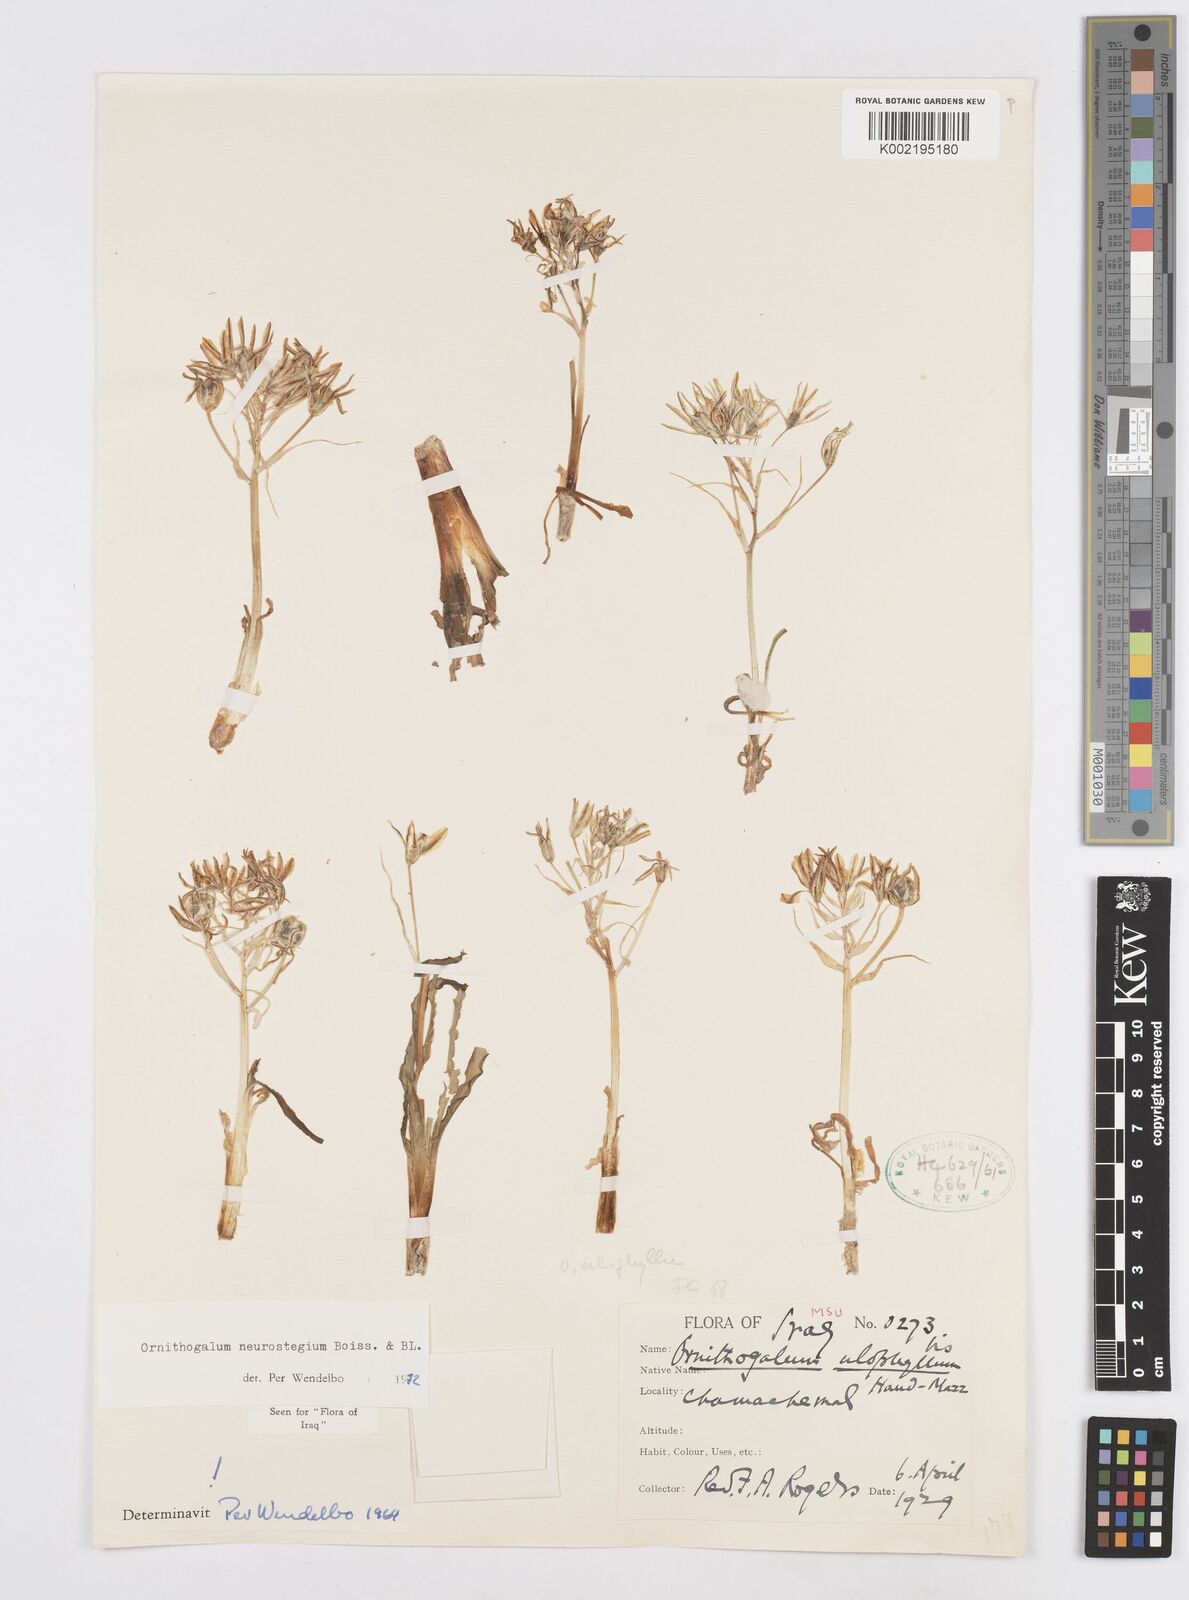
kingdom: Plantae
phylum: Tracheophyta
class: Liliopsida
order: Asparagales
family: Asparagaceae
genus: Ornithogalum
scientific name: Ornithogalum neurostegium
